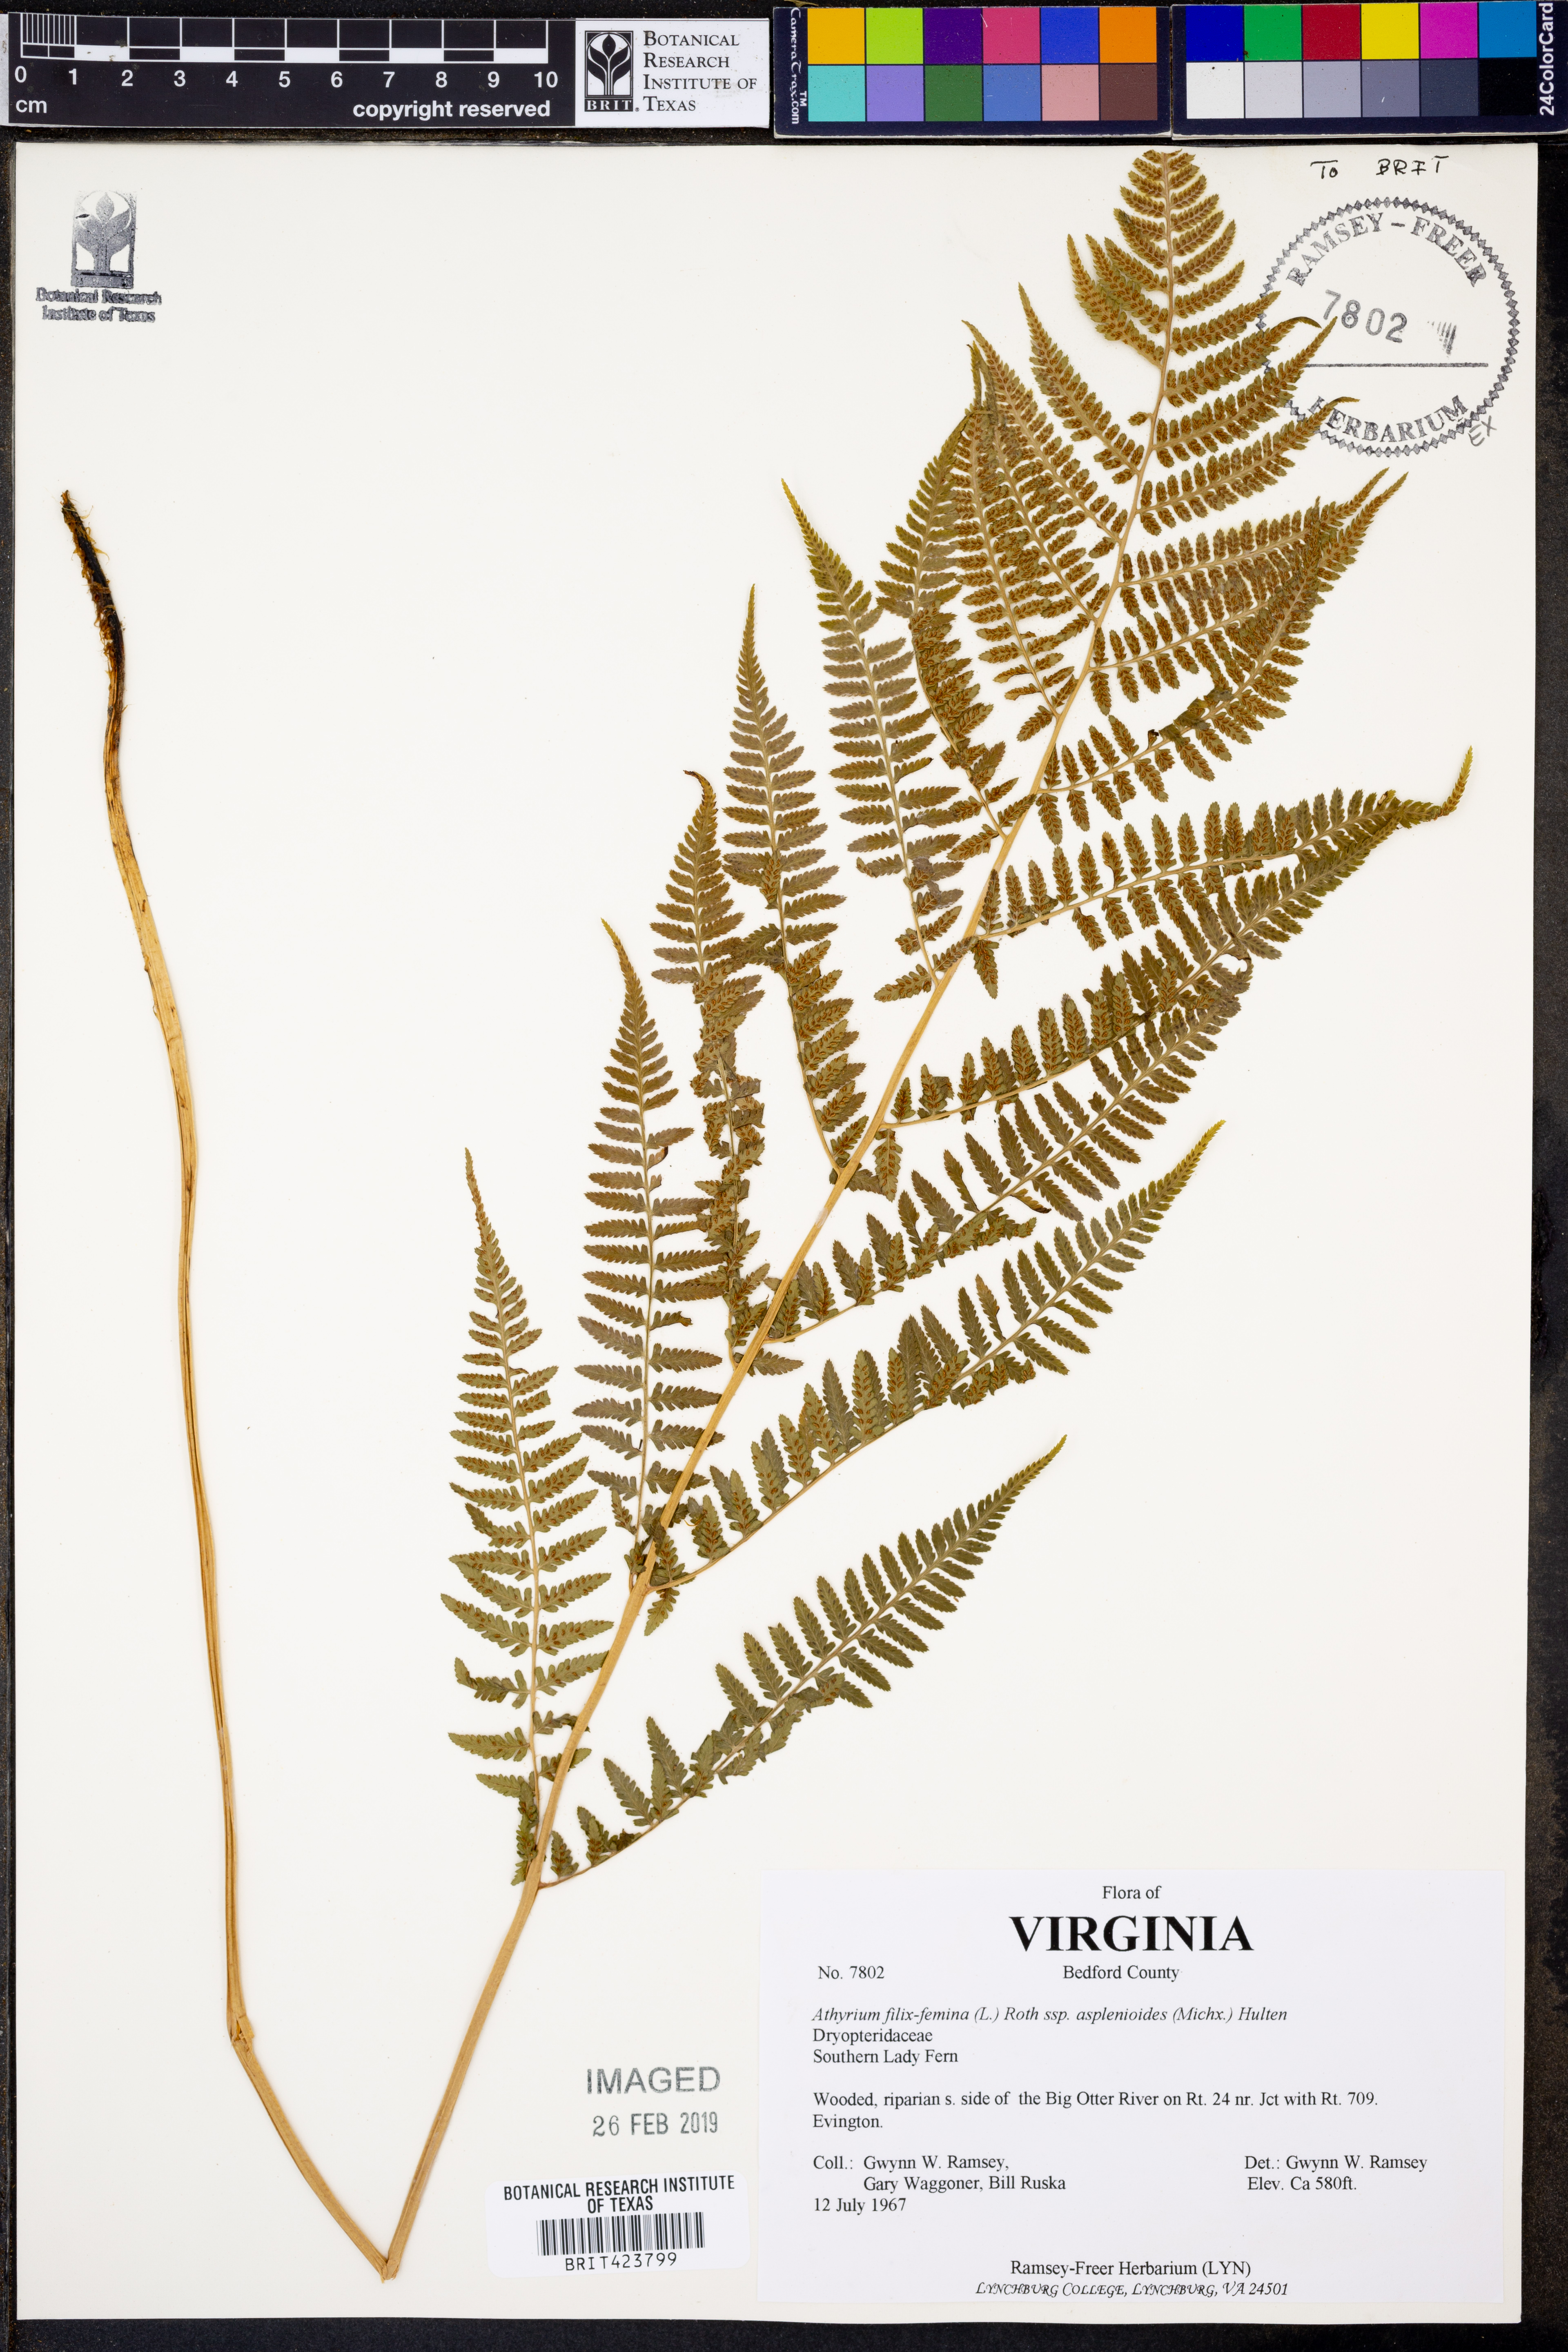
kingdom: Plantae
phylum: Tracheophyta
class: Polypodiopsida
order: Polypodiales
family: Athyriaceae
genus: Athyrium
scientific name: Athyrium asplenioides
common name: Southern lady fern
